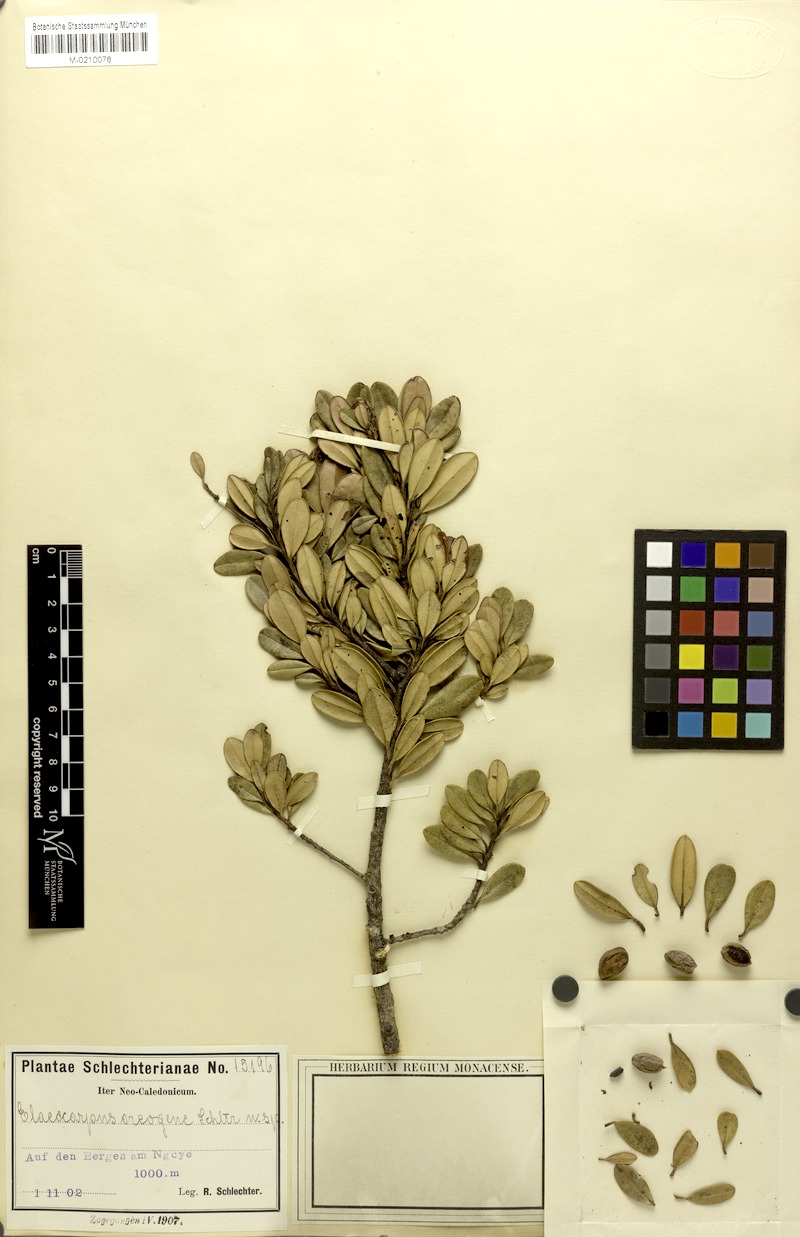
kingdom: Plantae
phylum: Tracheophyta
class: Magnoliopsida
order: Oxalidales
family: Elaeocarpaceae
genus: Elaeocarpus
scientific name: Elaeocarpus pulchellus
